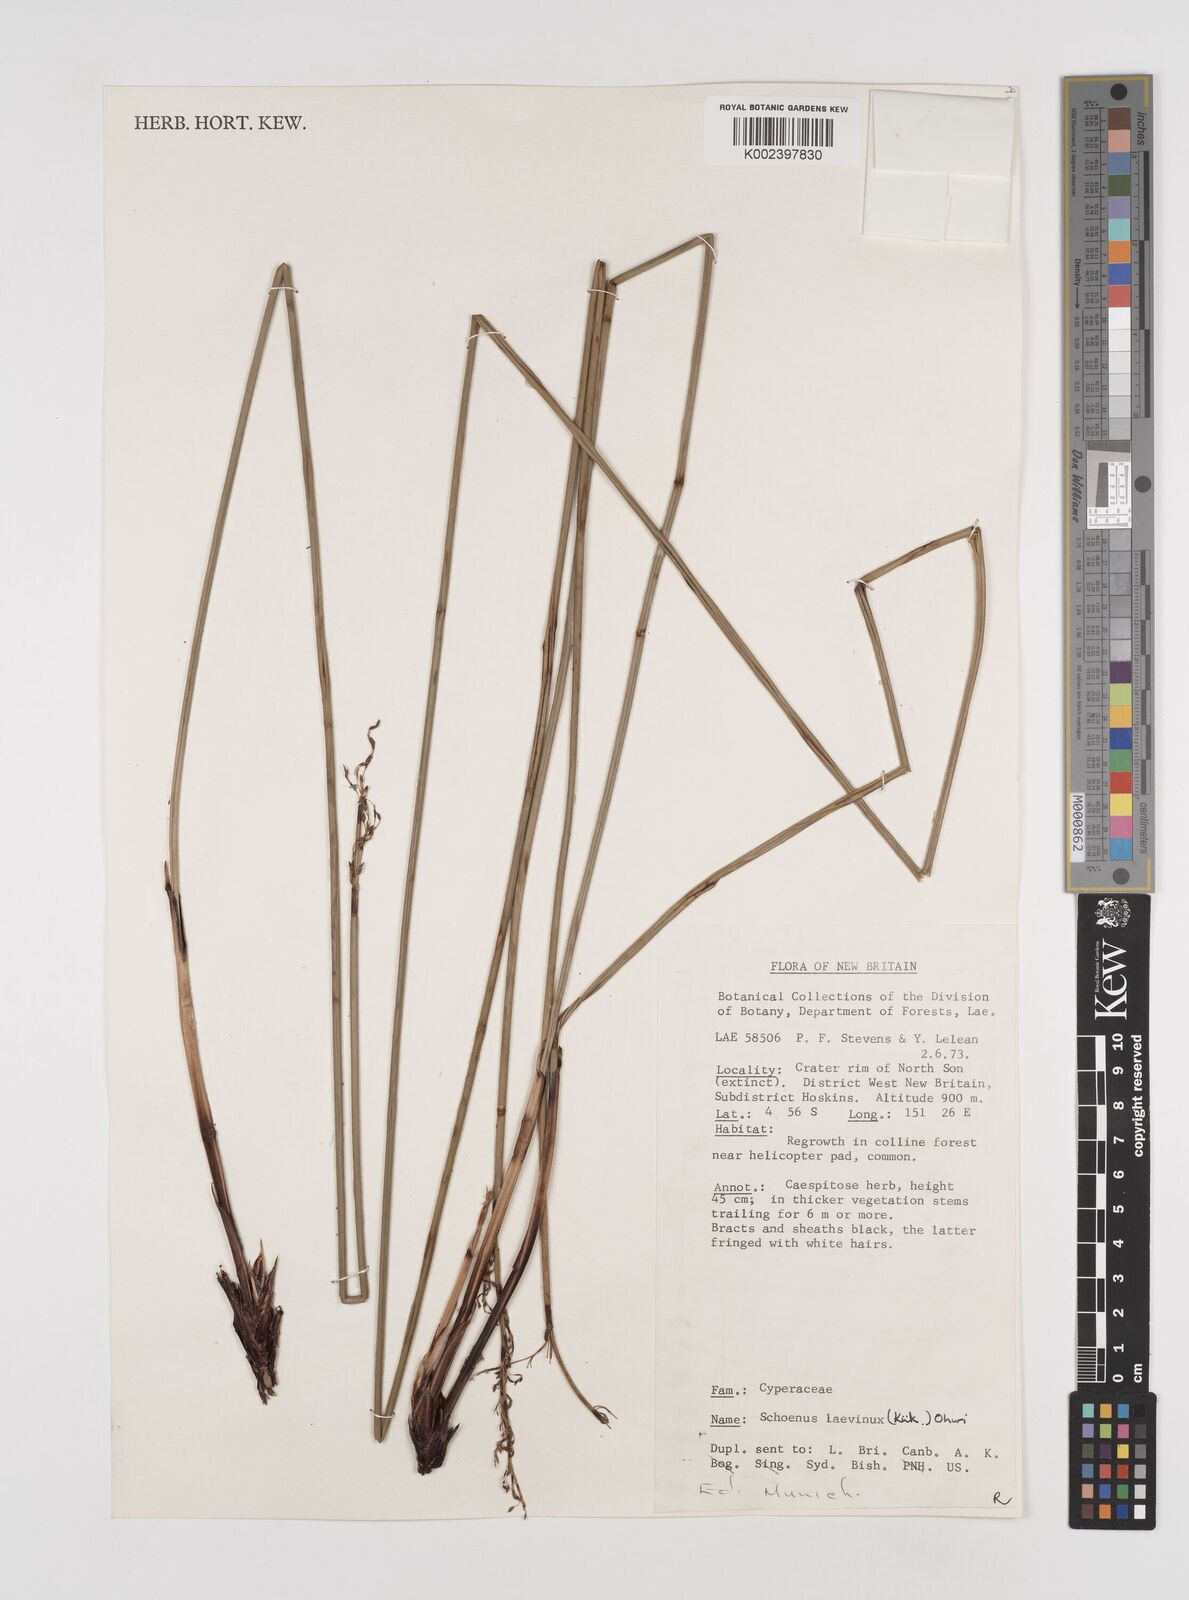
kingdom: Plantae
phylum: Tracheophyta
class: Liliopsida
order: Poales
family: Cyperaceae
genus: Schoenus
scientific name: Schoenus laevinux
